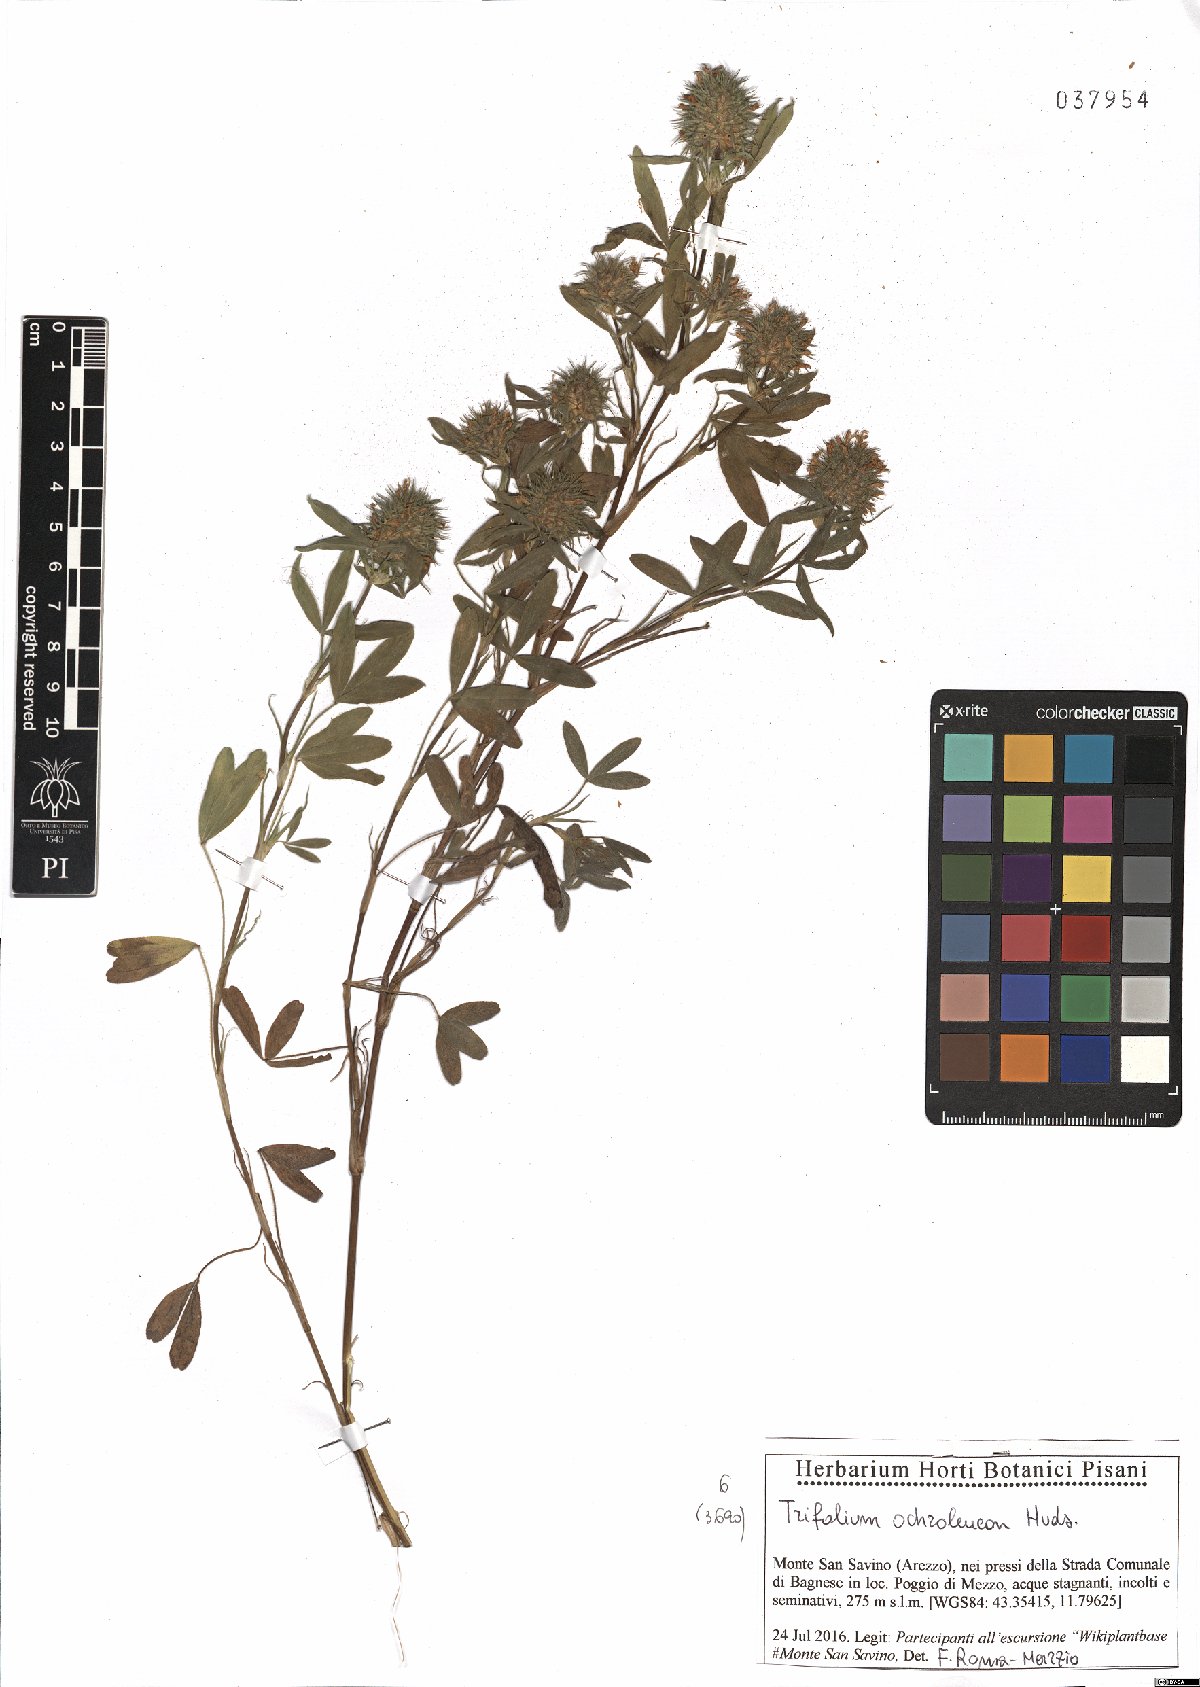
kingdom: Plantae
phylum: Tracheophyta
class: Magnoliopsida
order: Fabales
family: Fabaceae
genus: Trifolium
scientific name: Trifolium ochroleucon
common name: Sulphur clover
